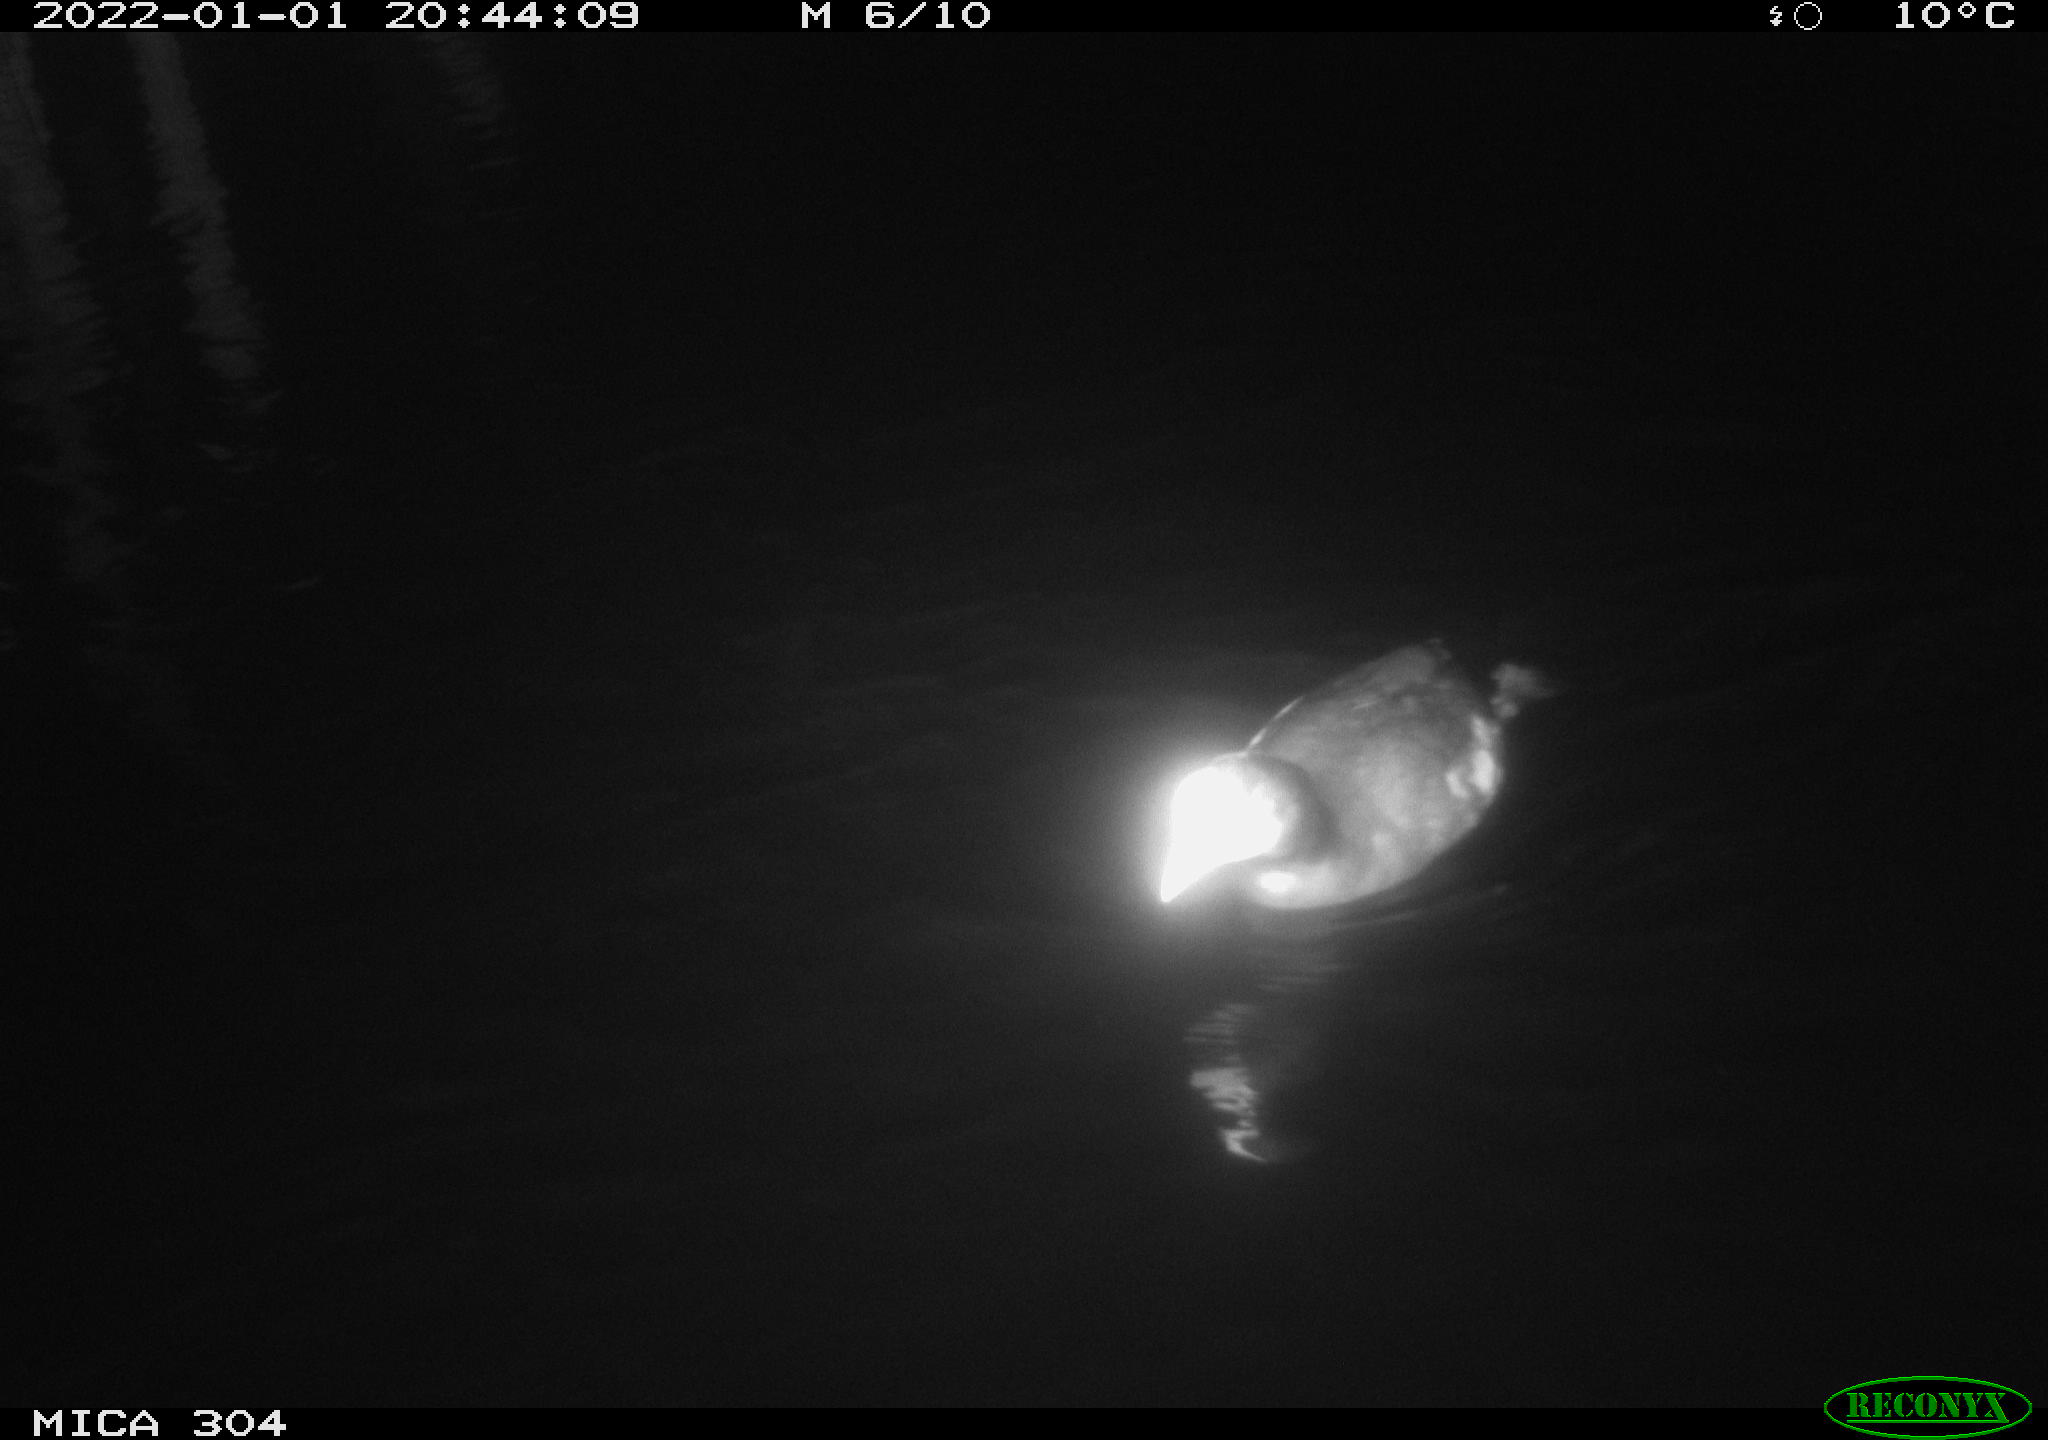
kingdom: Animalia
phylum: Chordata
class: Aves
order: Gruiformes
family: Rallidae
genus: Fulica
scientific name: Fulica atra
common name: Eurasian coot
